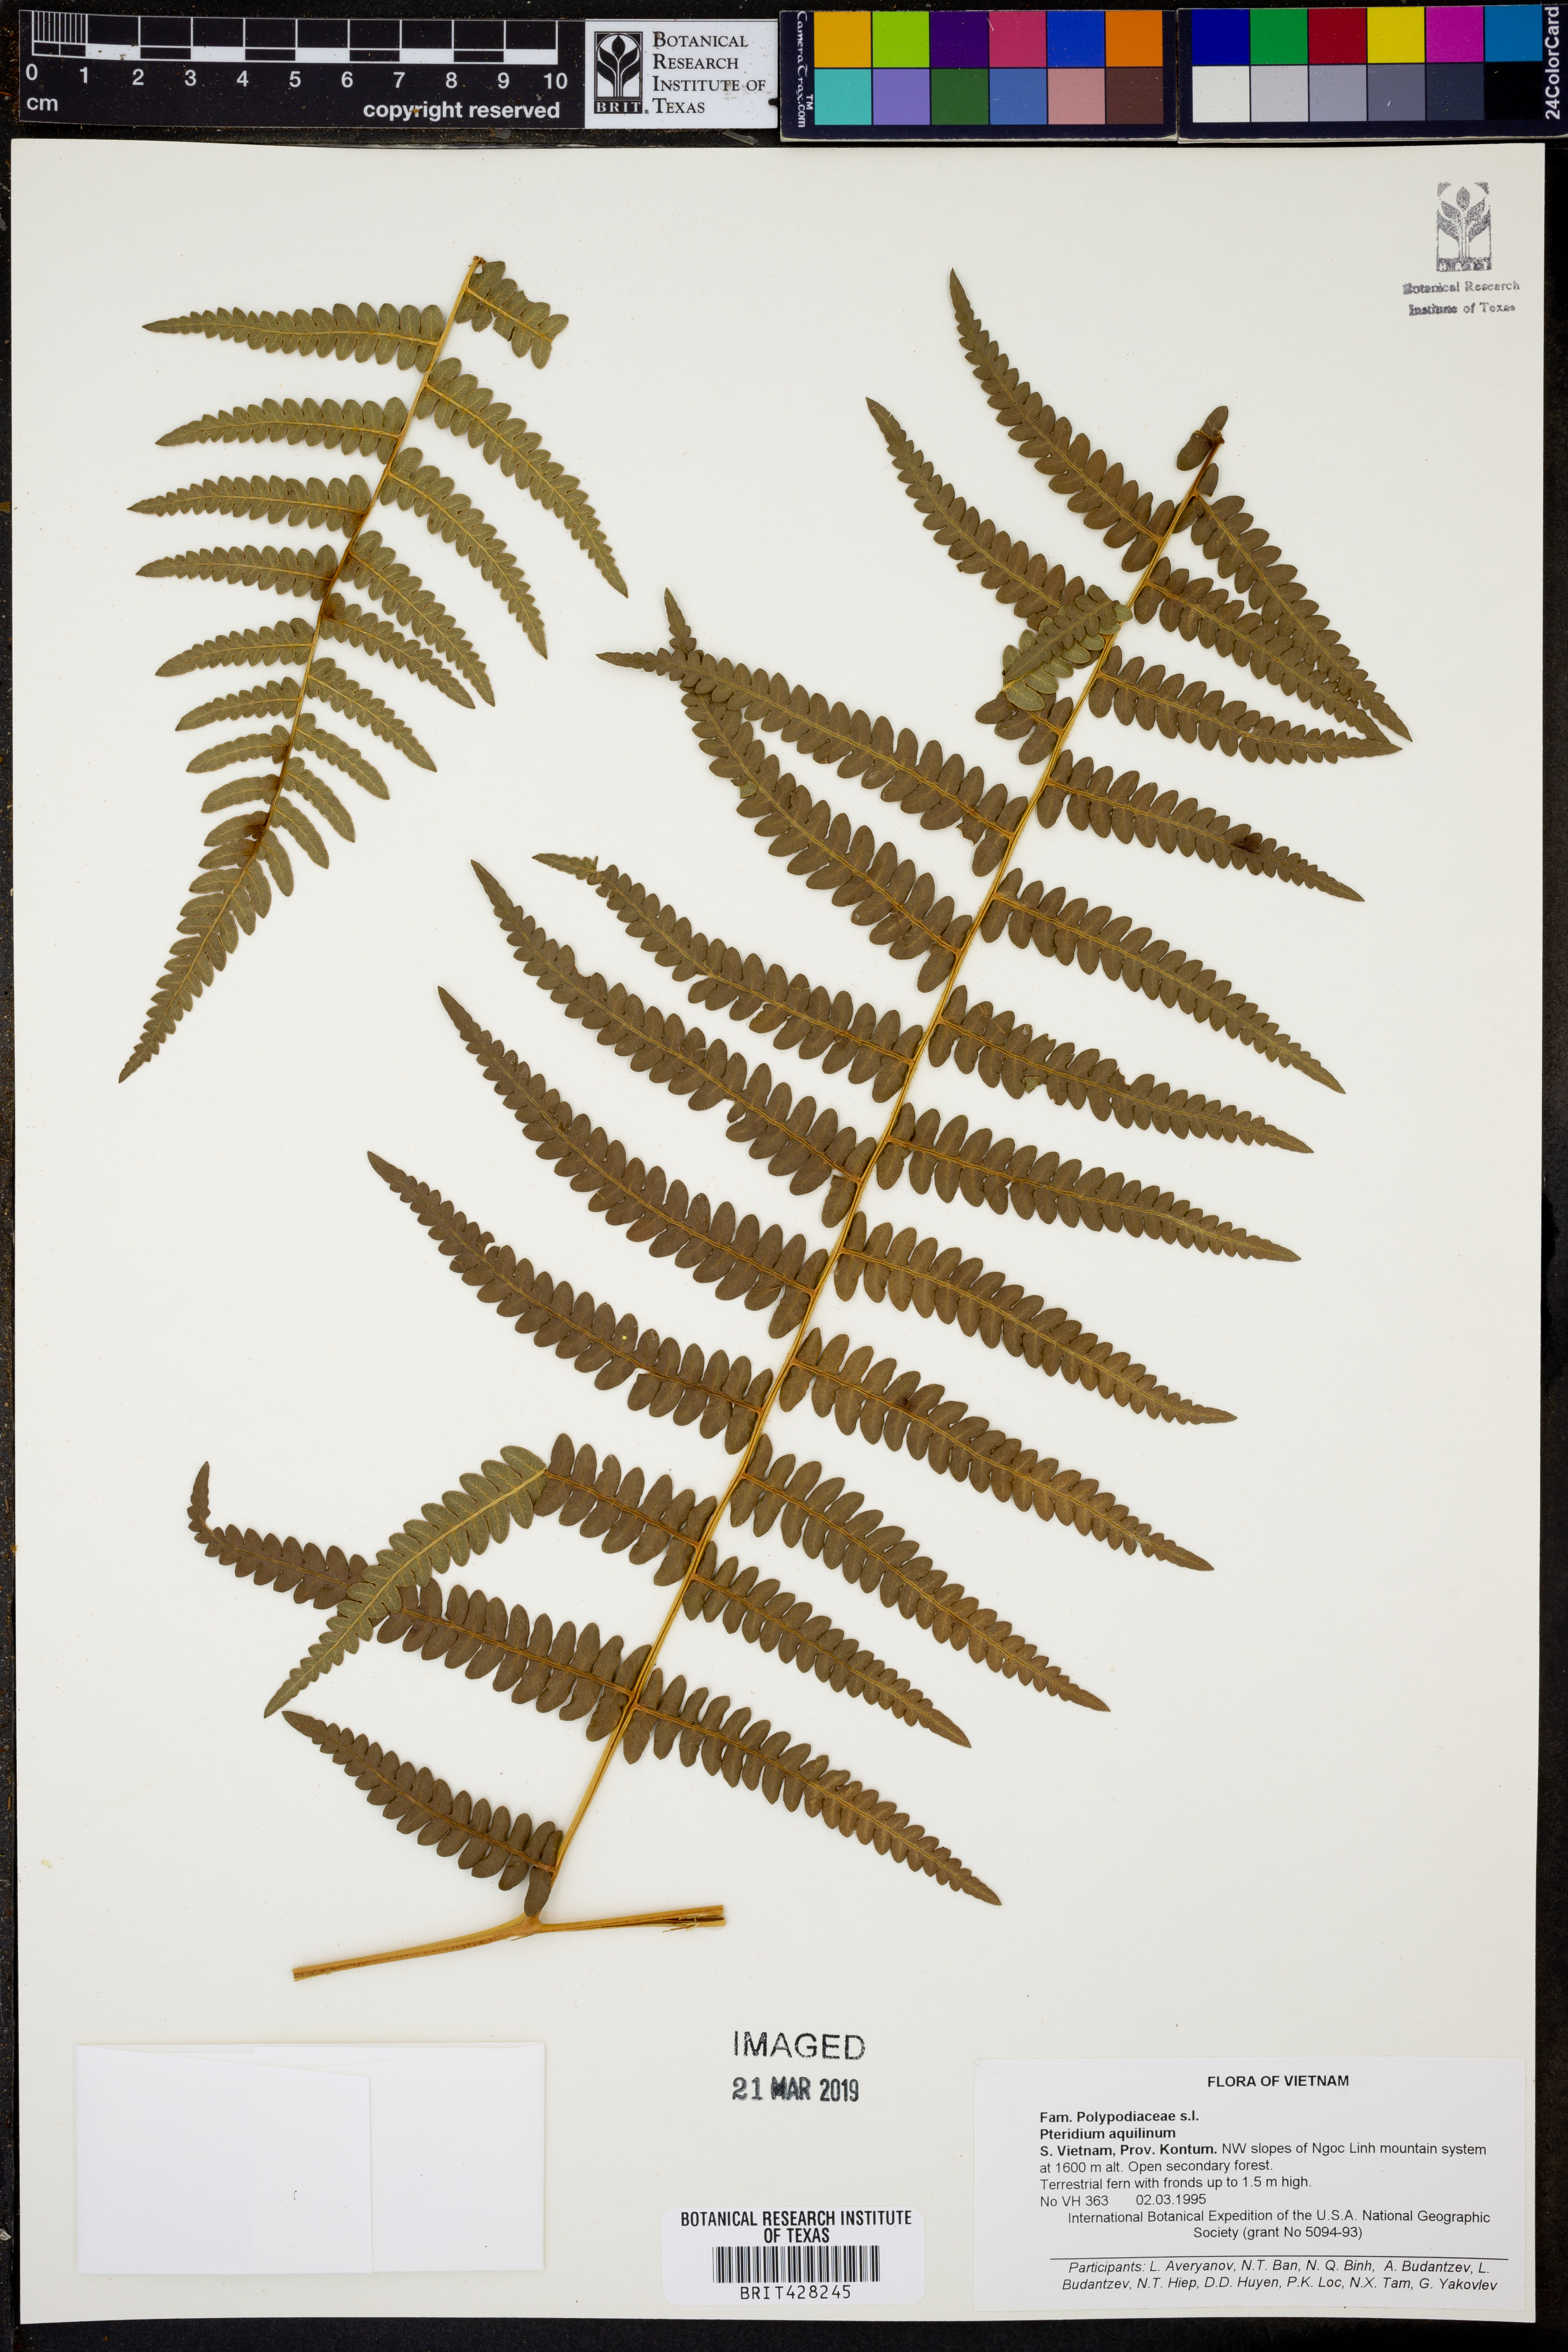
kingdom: Plantae
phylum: Tracheophyta
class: Polypodiopsida
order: Polypodiales
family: Dennstaedtiaceae
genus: Pteridium
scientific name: Pteridium aquilinum
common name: Bracken
